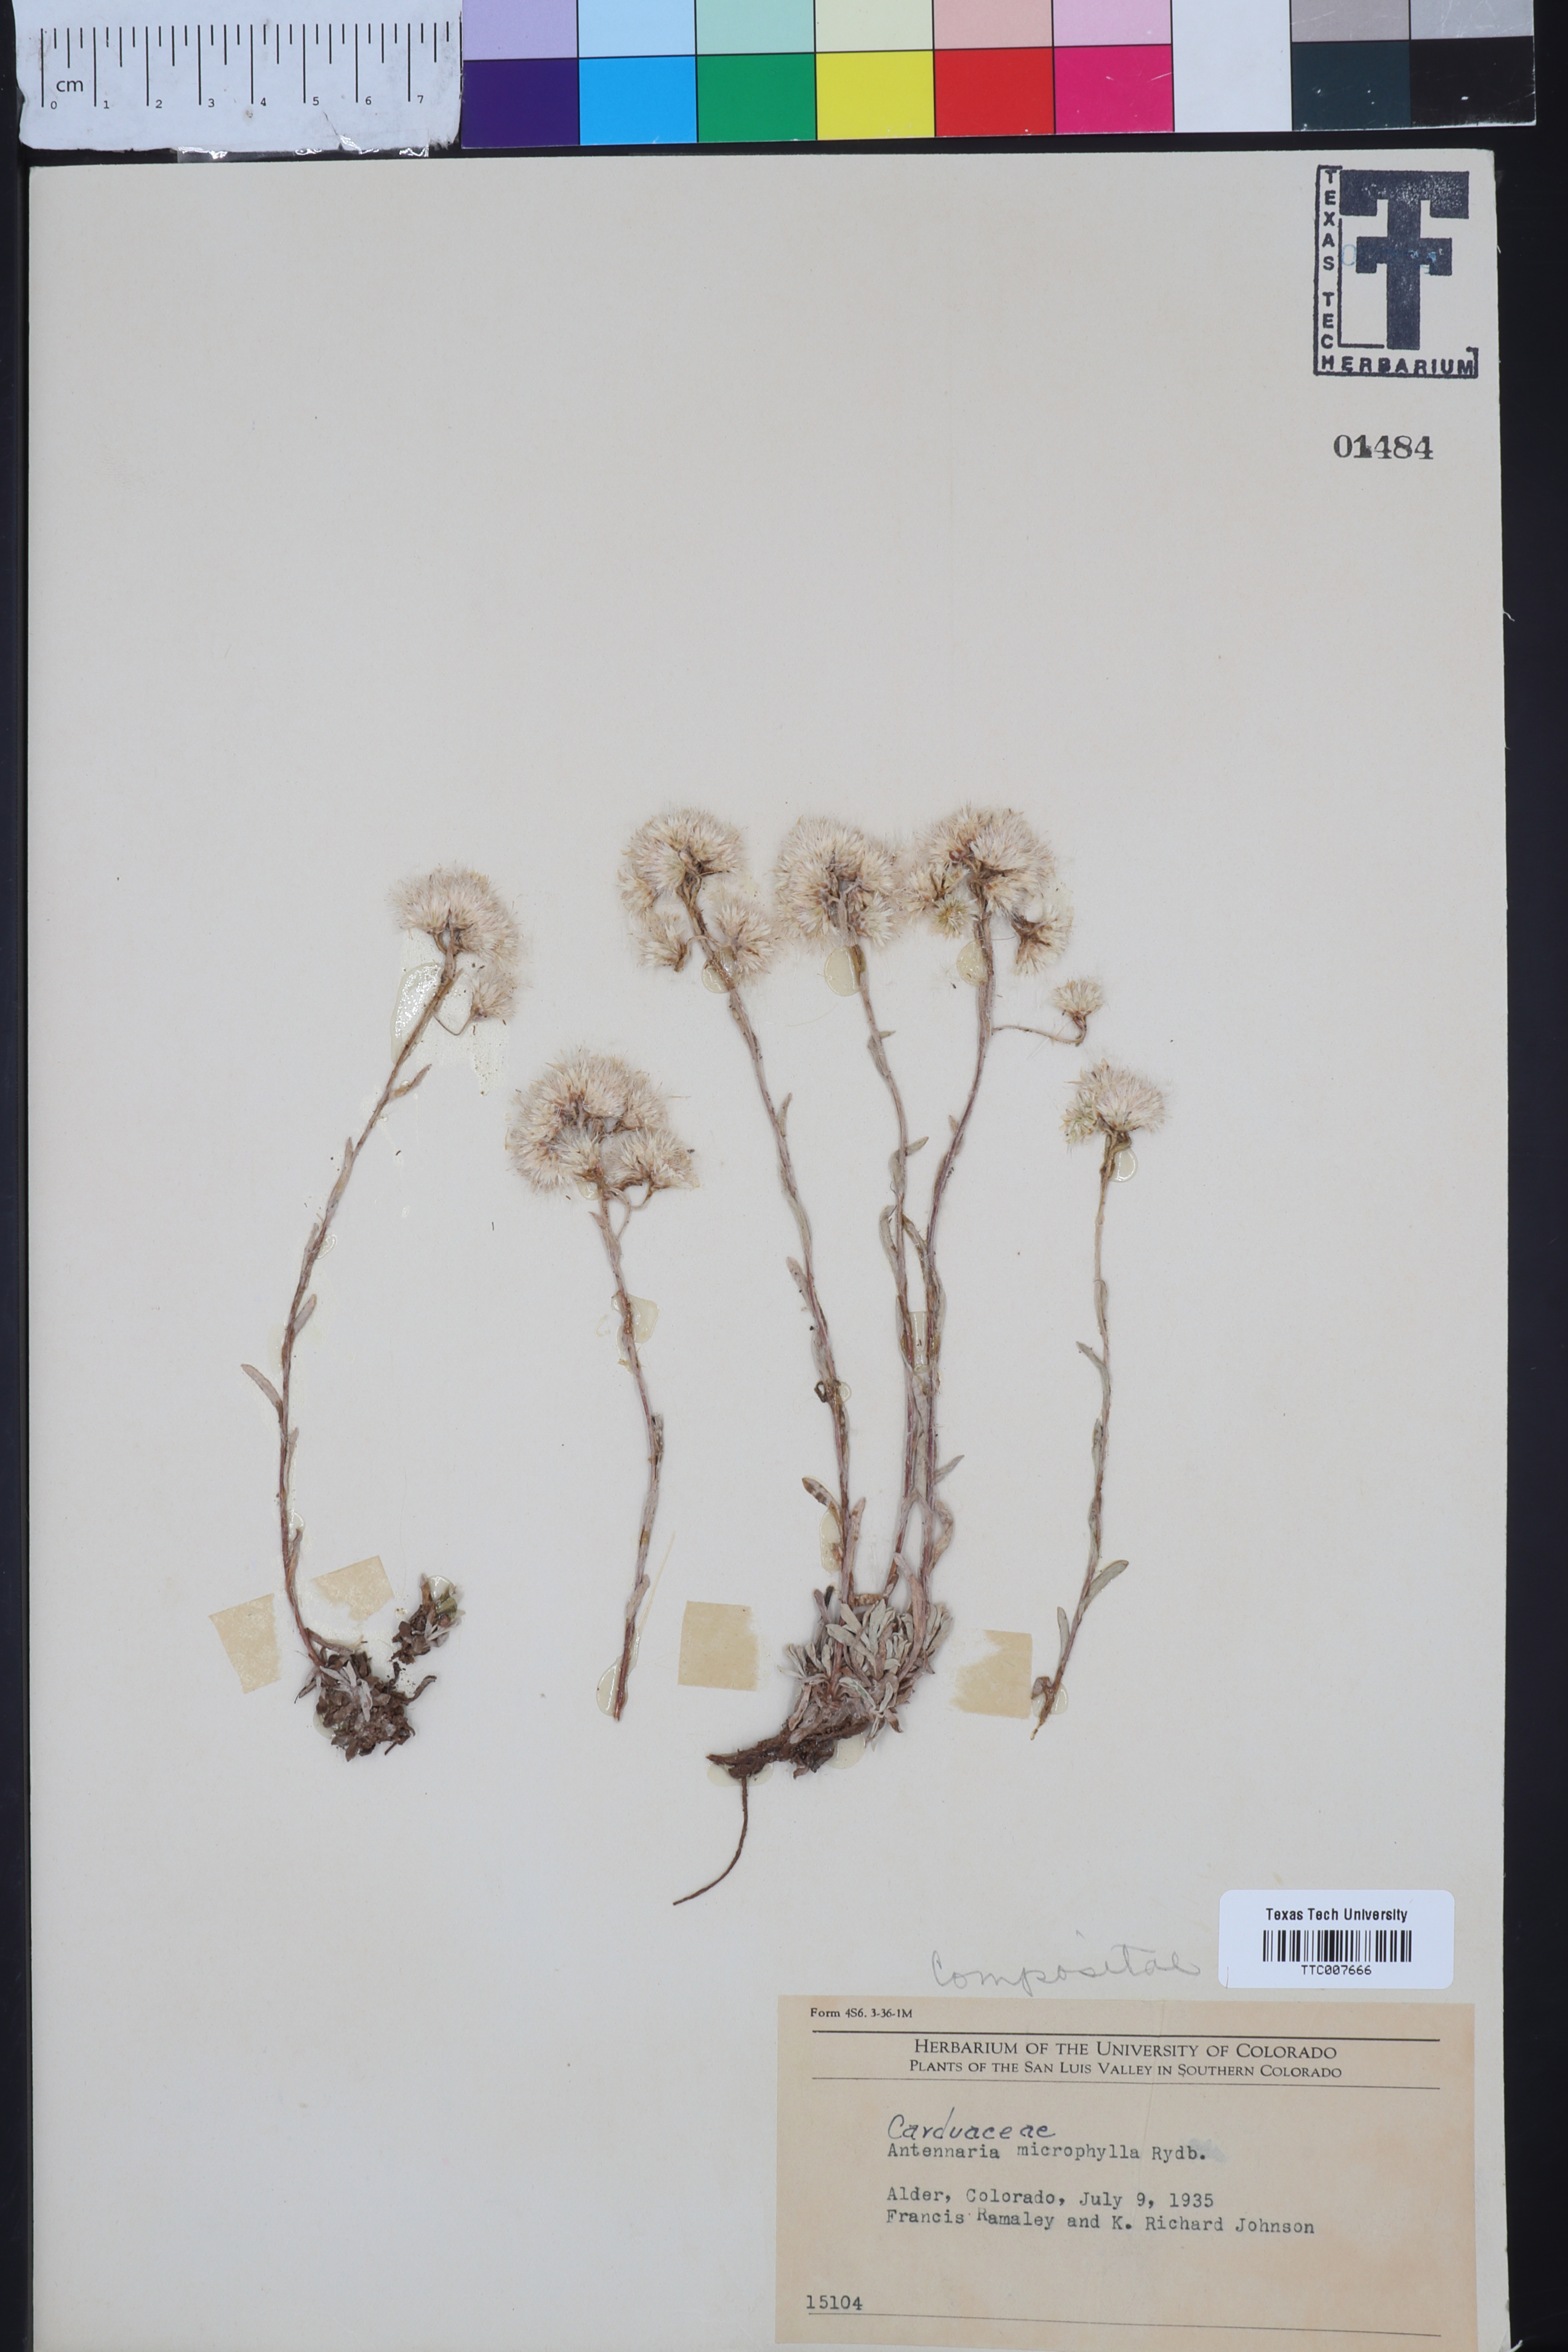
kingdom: Plantae
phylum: Tracheophyta
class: Magnoliopsida
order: Asterales
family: Asteraceae
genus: Antennaria
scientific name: Antennaria microphylla
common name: Littleleaf pussytoes
